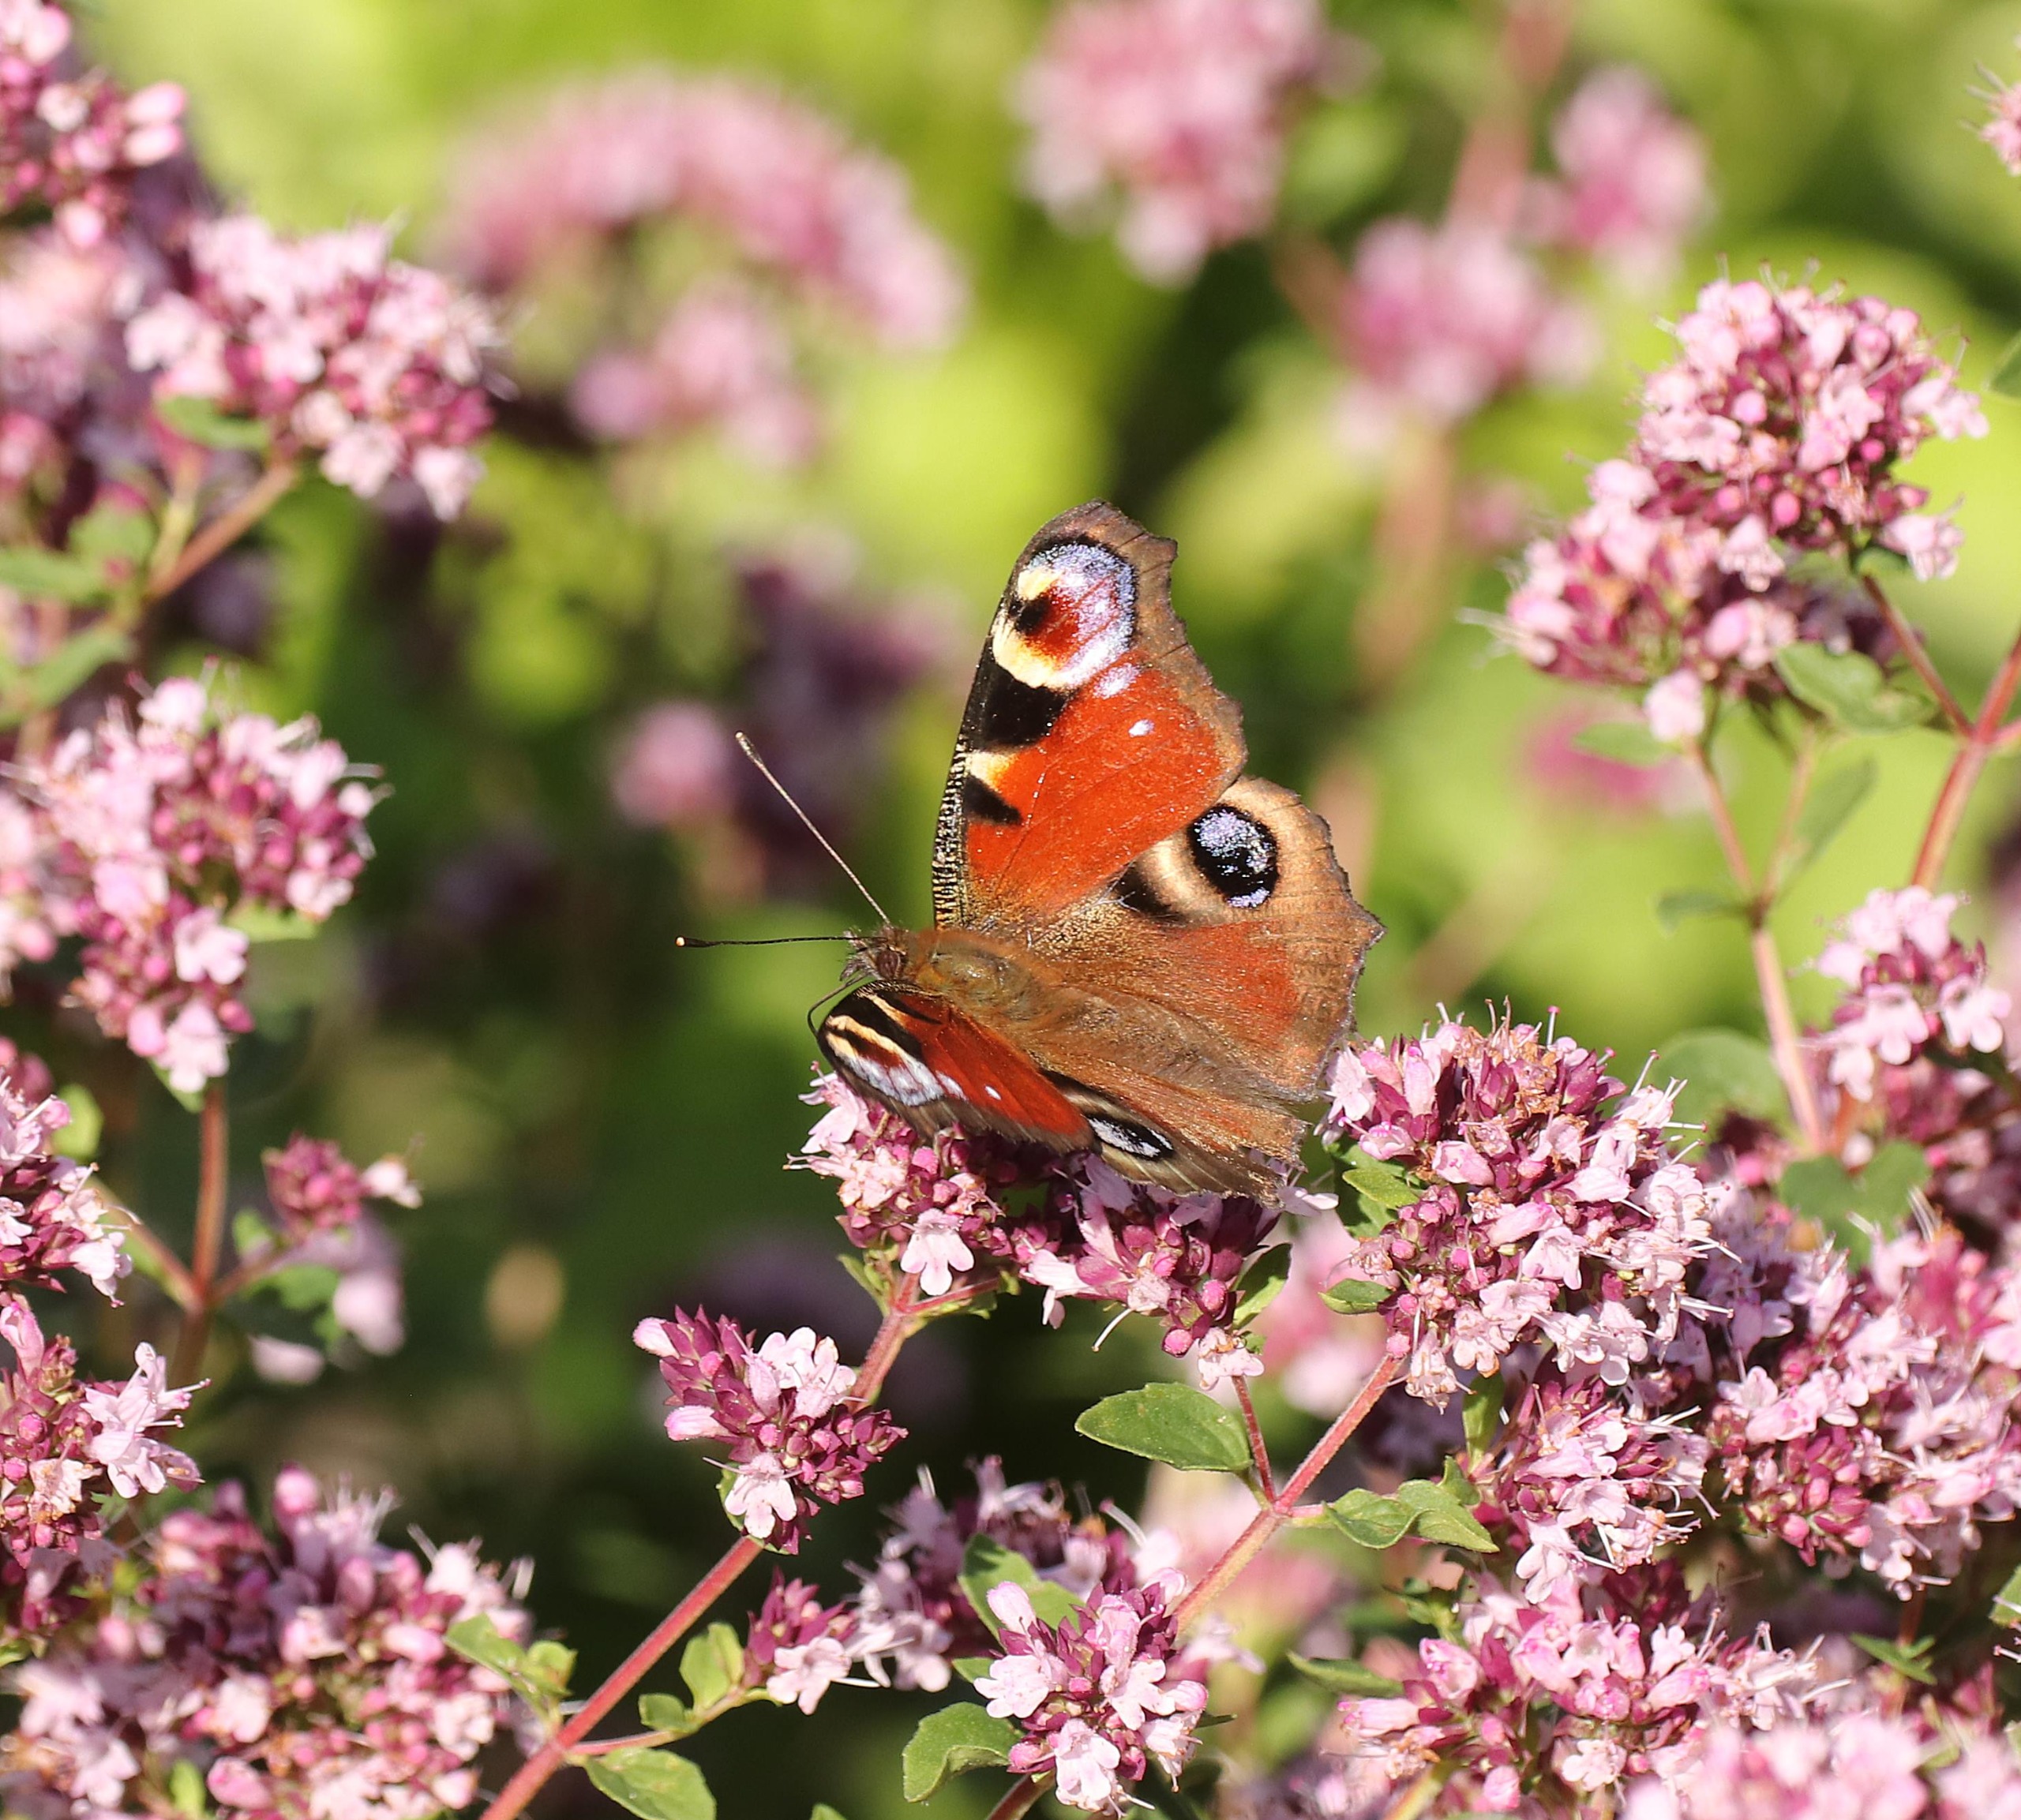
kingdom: Animalia
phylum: Arthropoda
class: Insecta
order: Lepidoptera
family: Nymphalidae
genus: Aglais
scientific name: Aglais io
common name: Dagpåfugleøje
